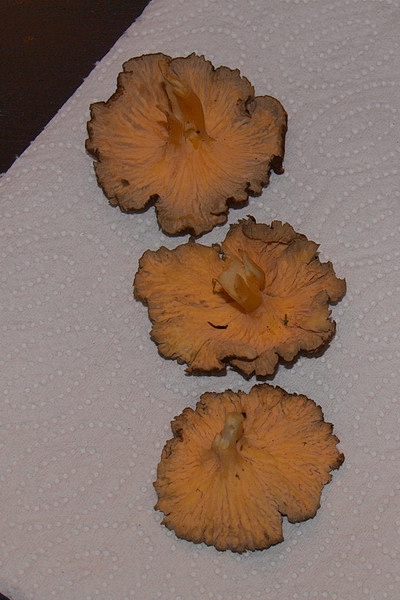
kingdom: Fungi
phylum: Basidiomycota
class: Agaricomycetes
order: Cantharellales
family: Hydnaceae
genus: Craterellus
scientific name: Craterellus lutescens
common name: gylden kantarel
